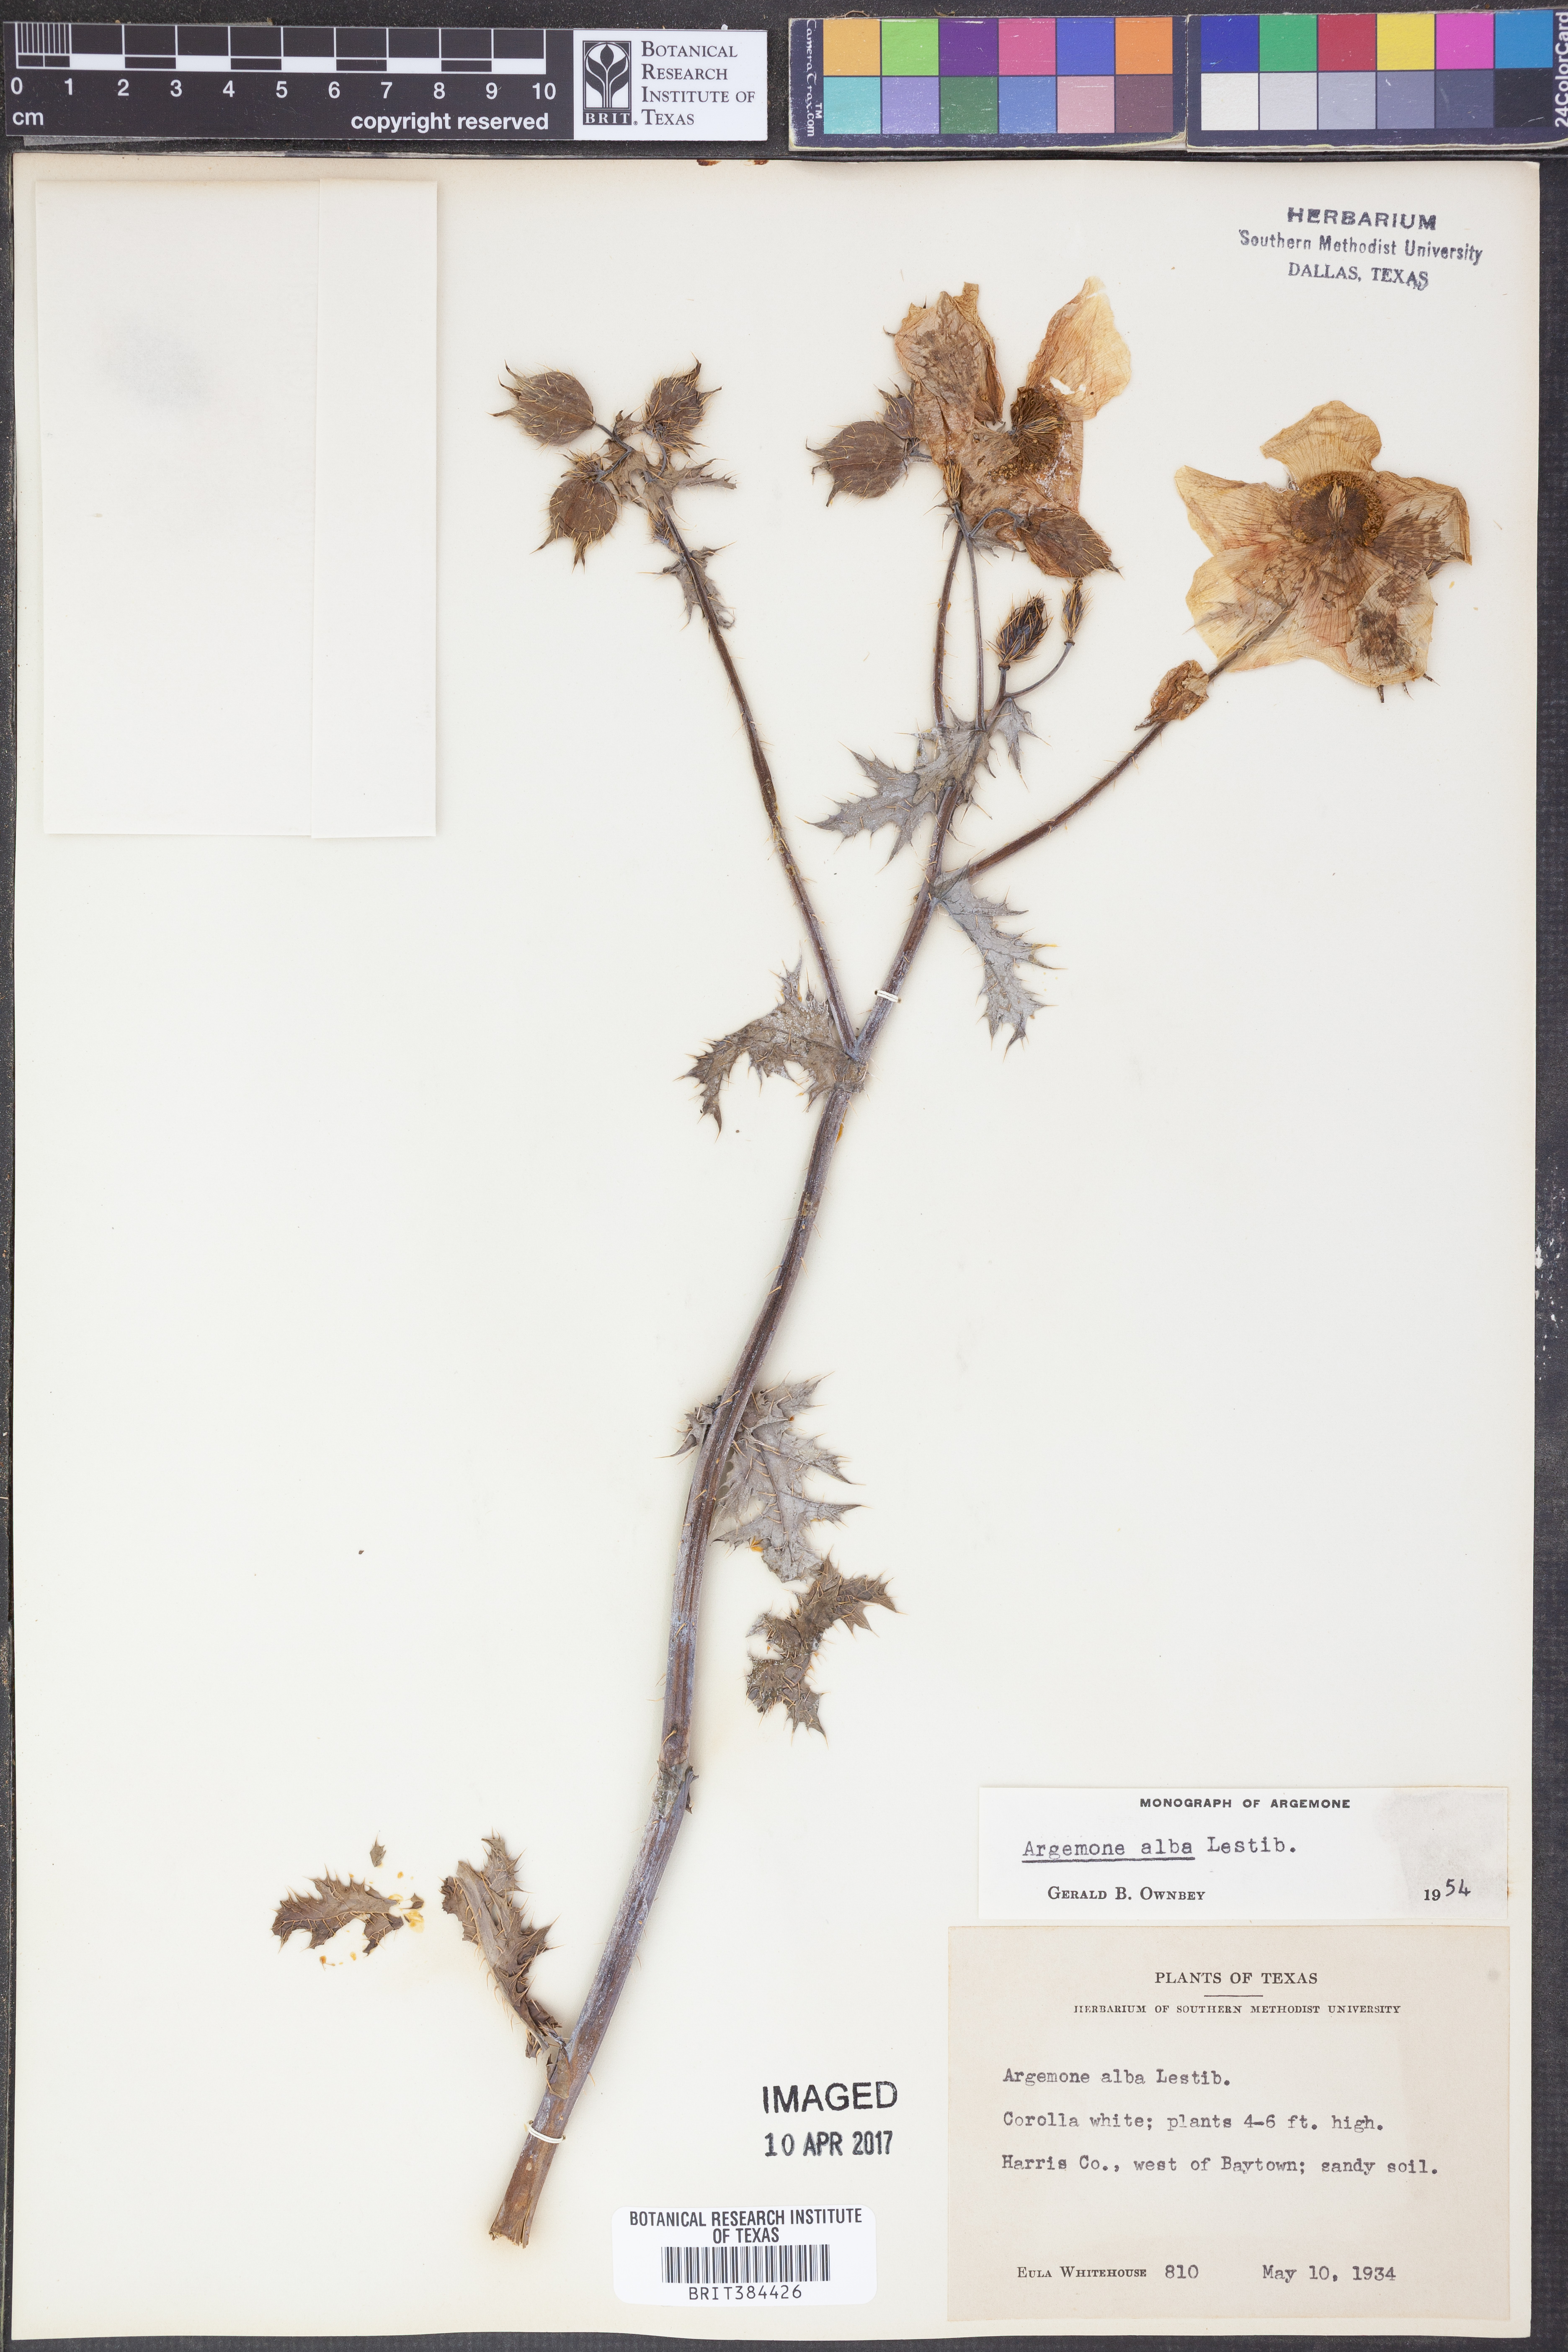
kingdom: Plantae
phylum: Tracheophyta
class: Magnoliopsida
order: Ranunculales
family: Papaveraceae
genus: Argemone
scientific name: Argemone albiflora
